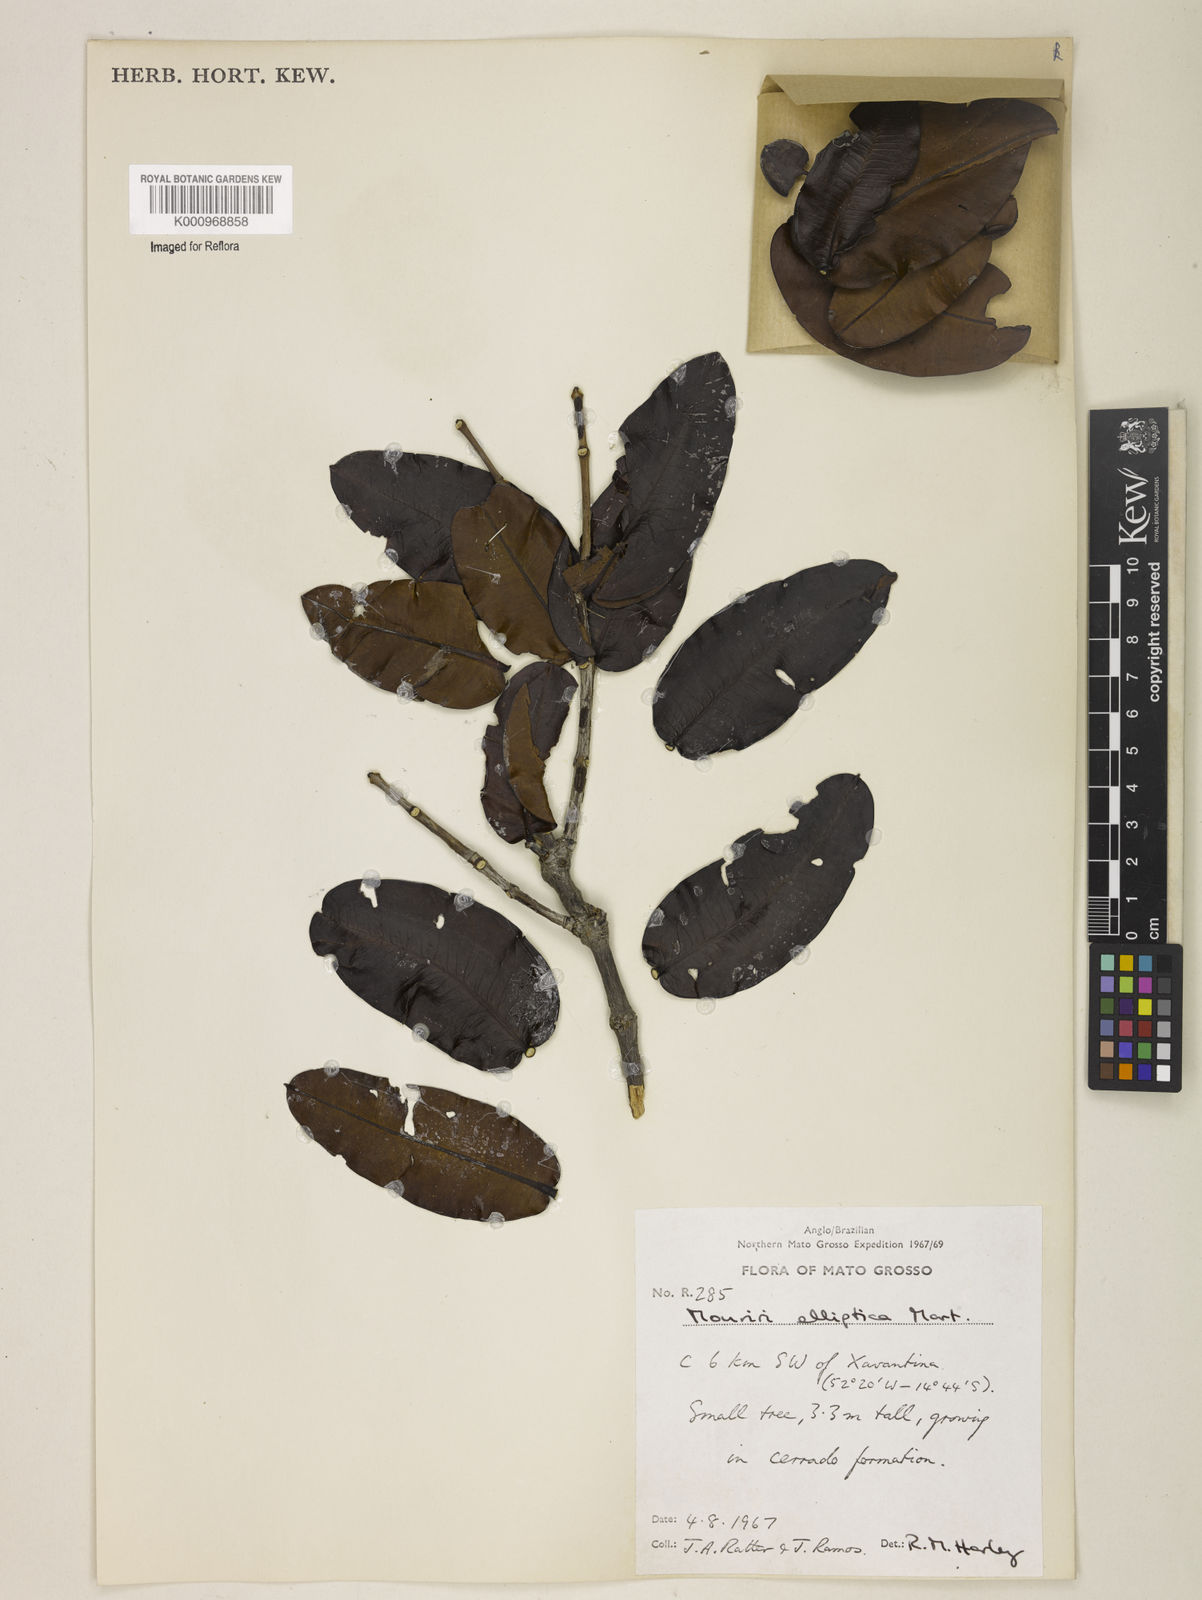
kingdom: Plantae
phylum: Tracheophyta
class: Magnoliopsida
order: Myrtales
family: Melastomataceae
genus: Mouriri
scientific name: Mouriri elliptica
